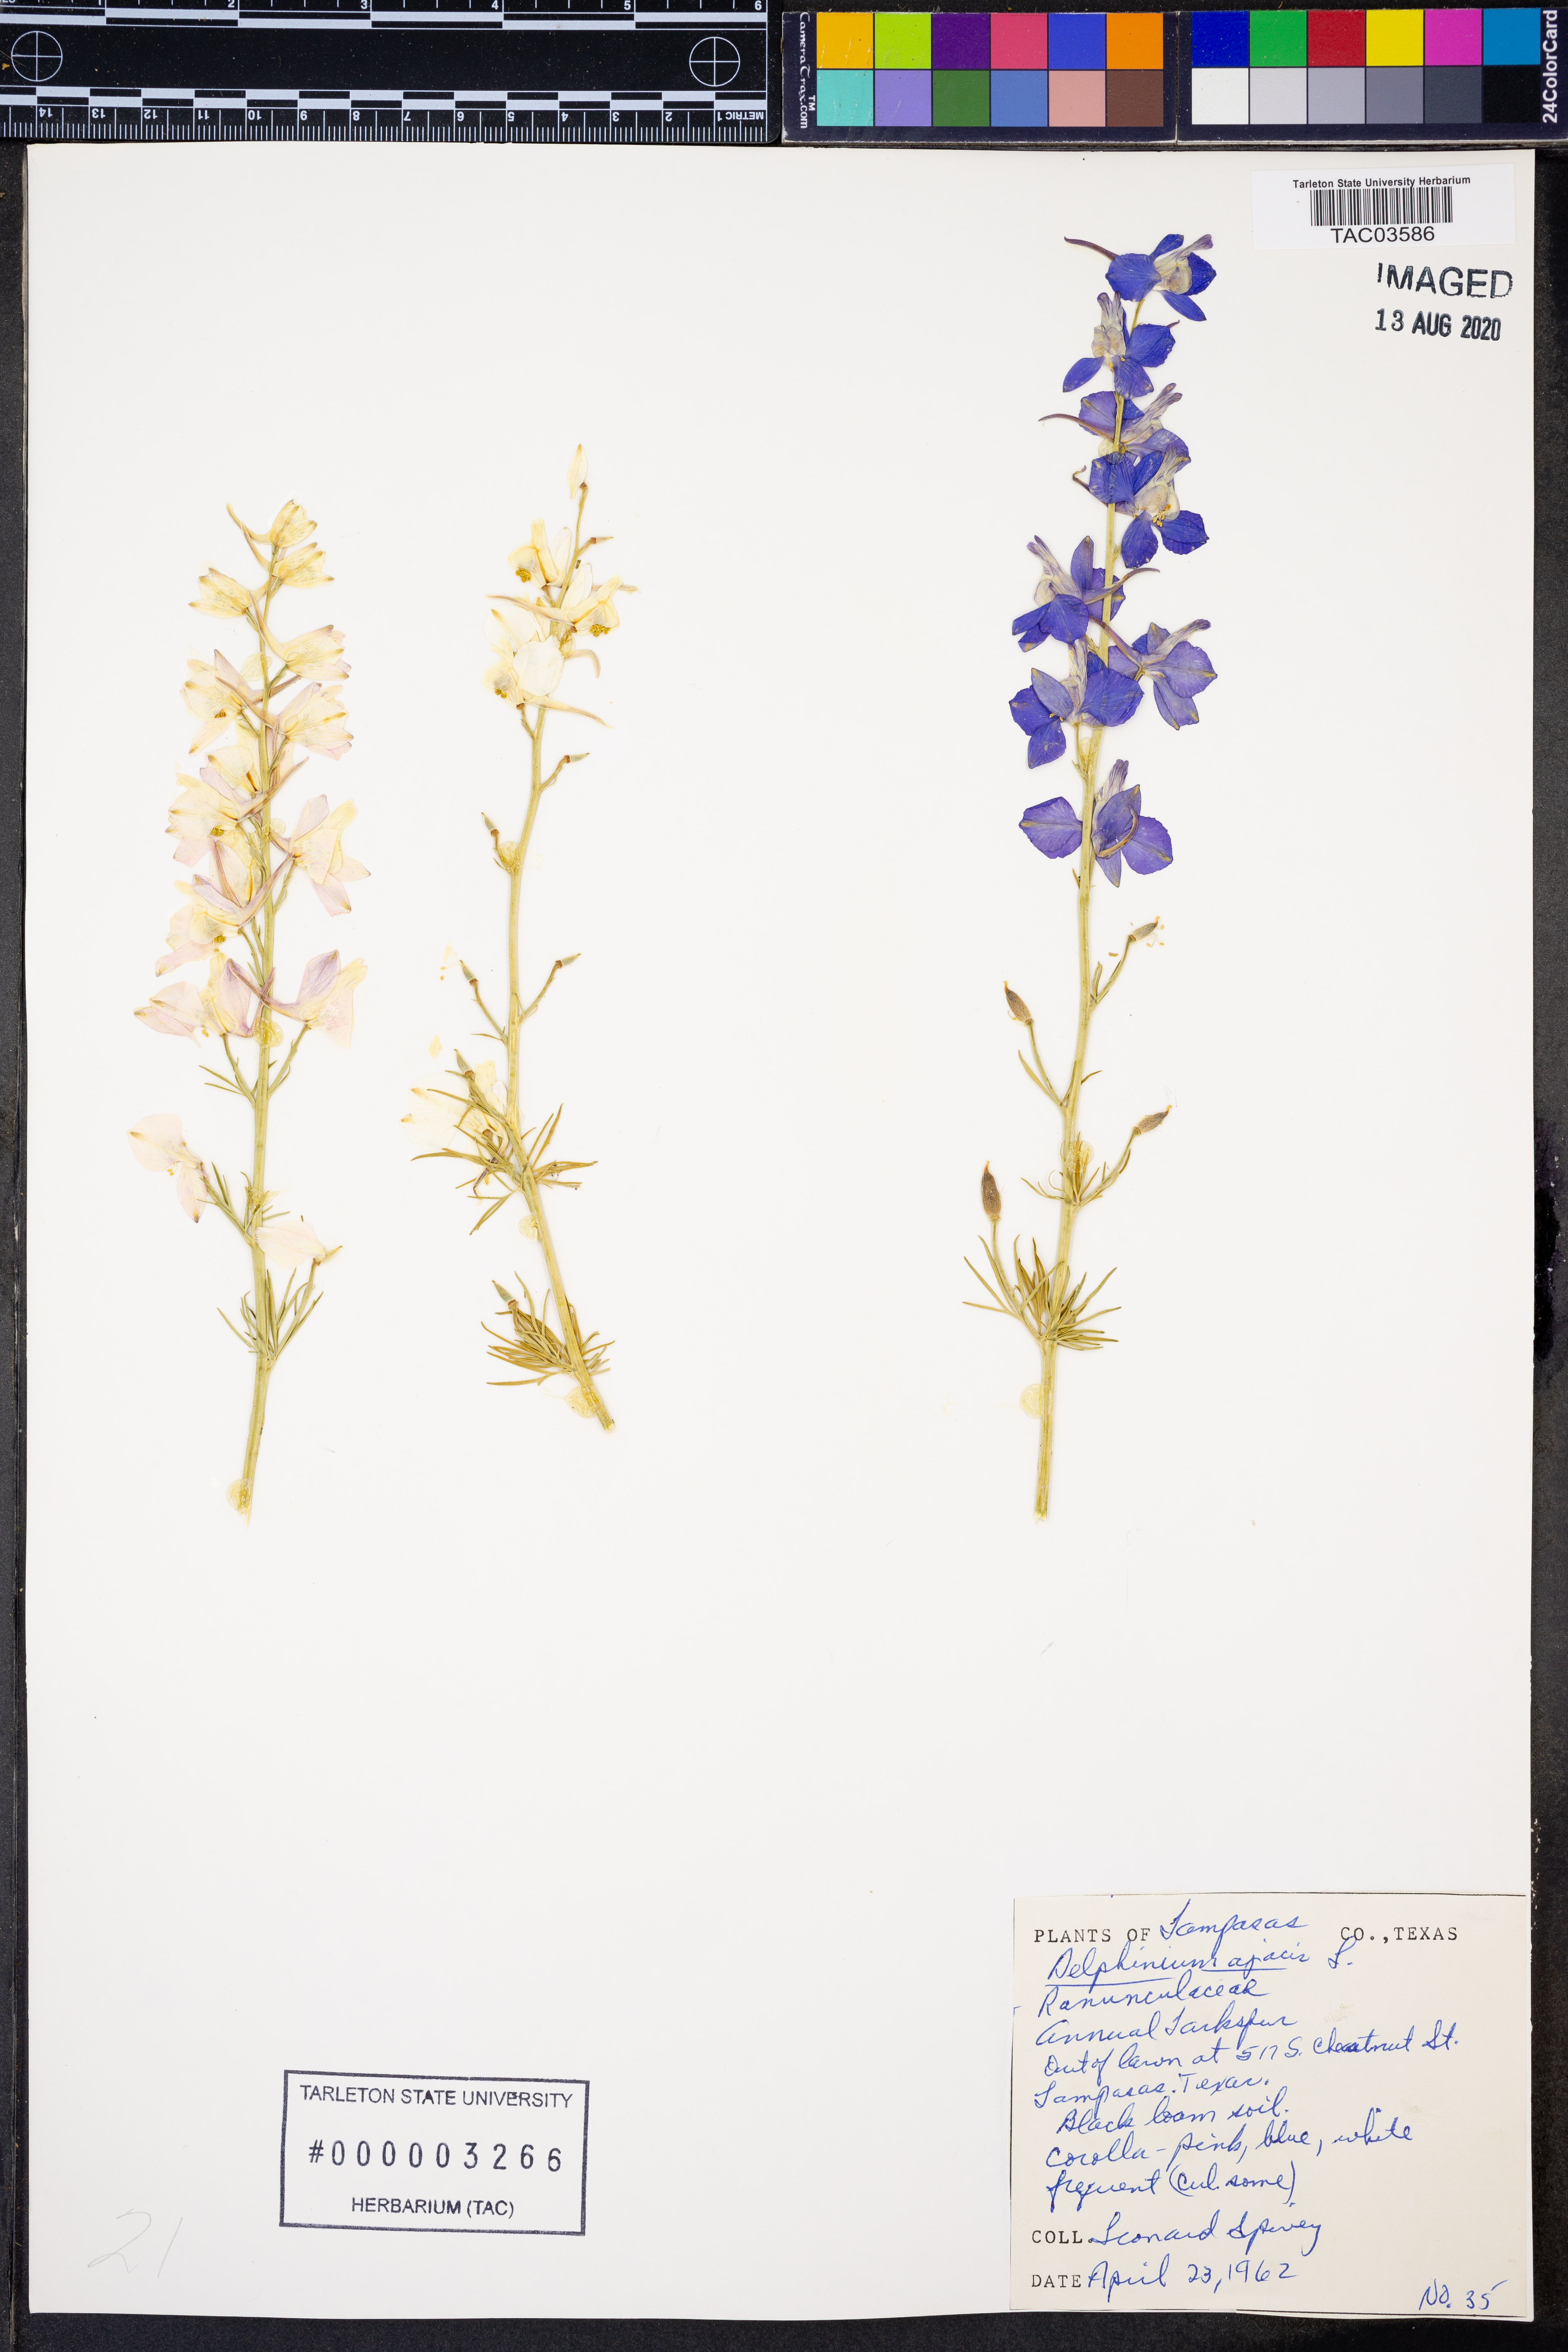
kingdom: Plantae
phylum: Tracheophyta
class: Magnoliopsida
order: Ranunculales
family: Ranunculaceae
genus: Delphinium
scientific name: Delphinium ajacis
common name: Doubtful knight's-spur
